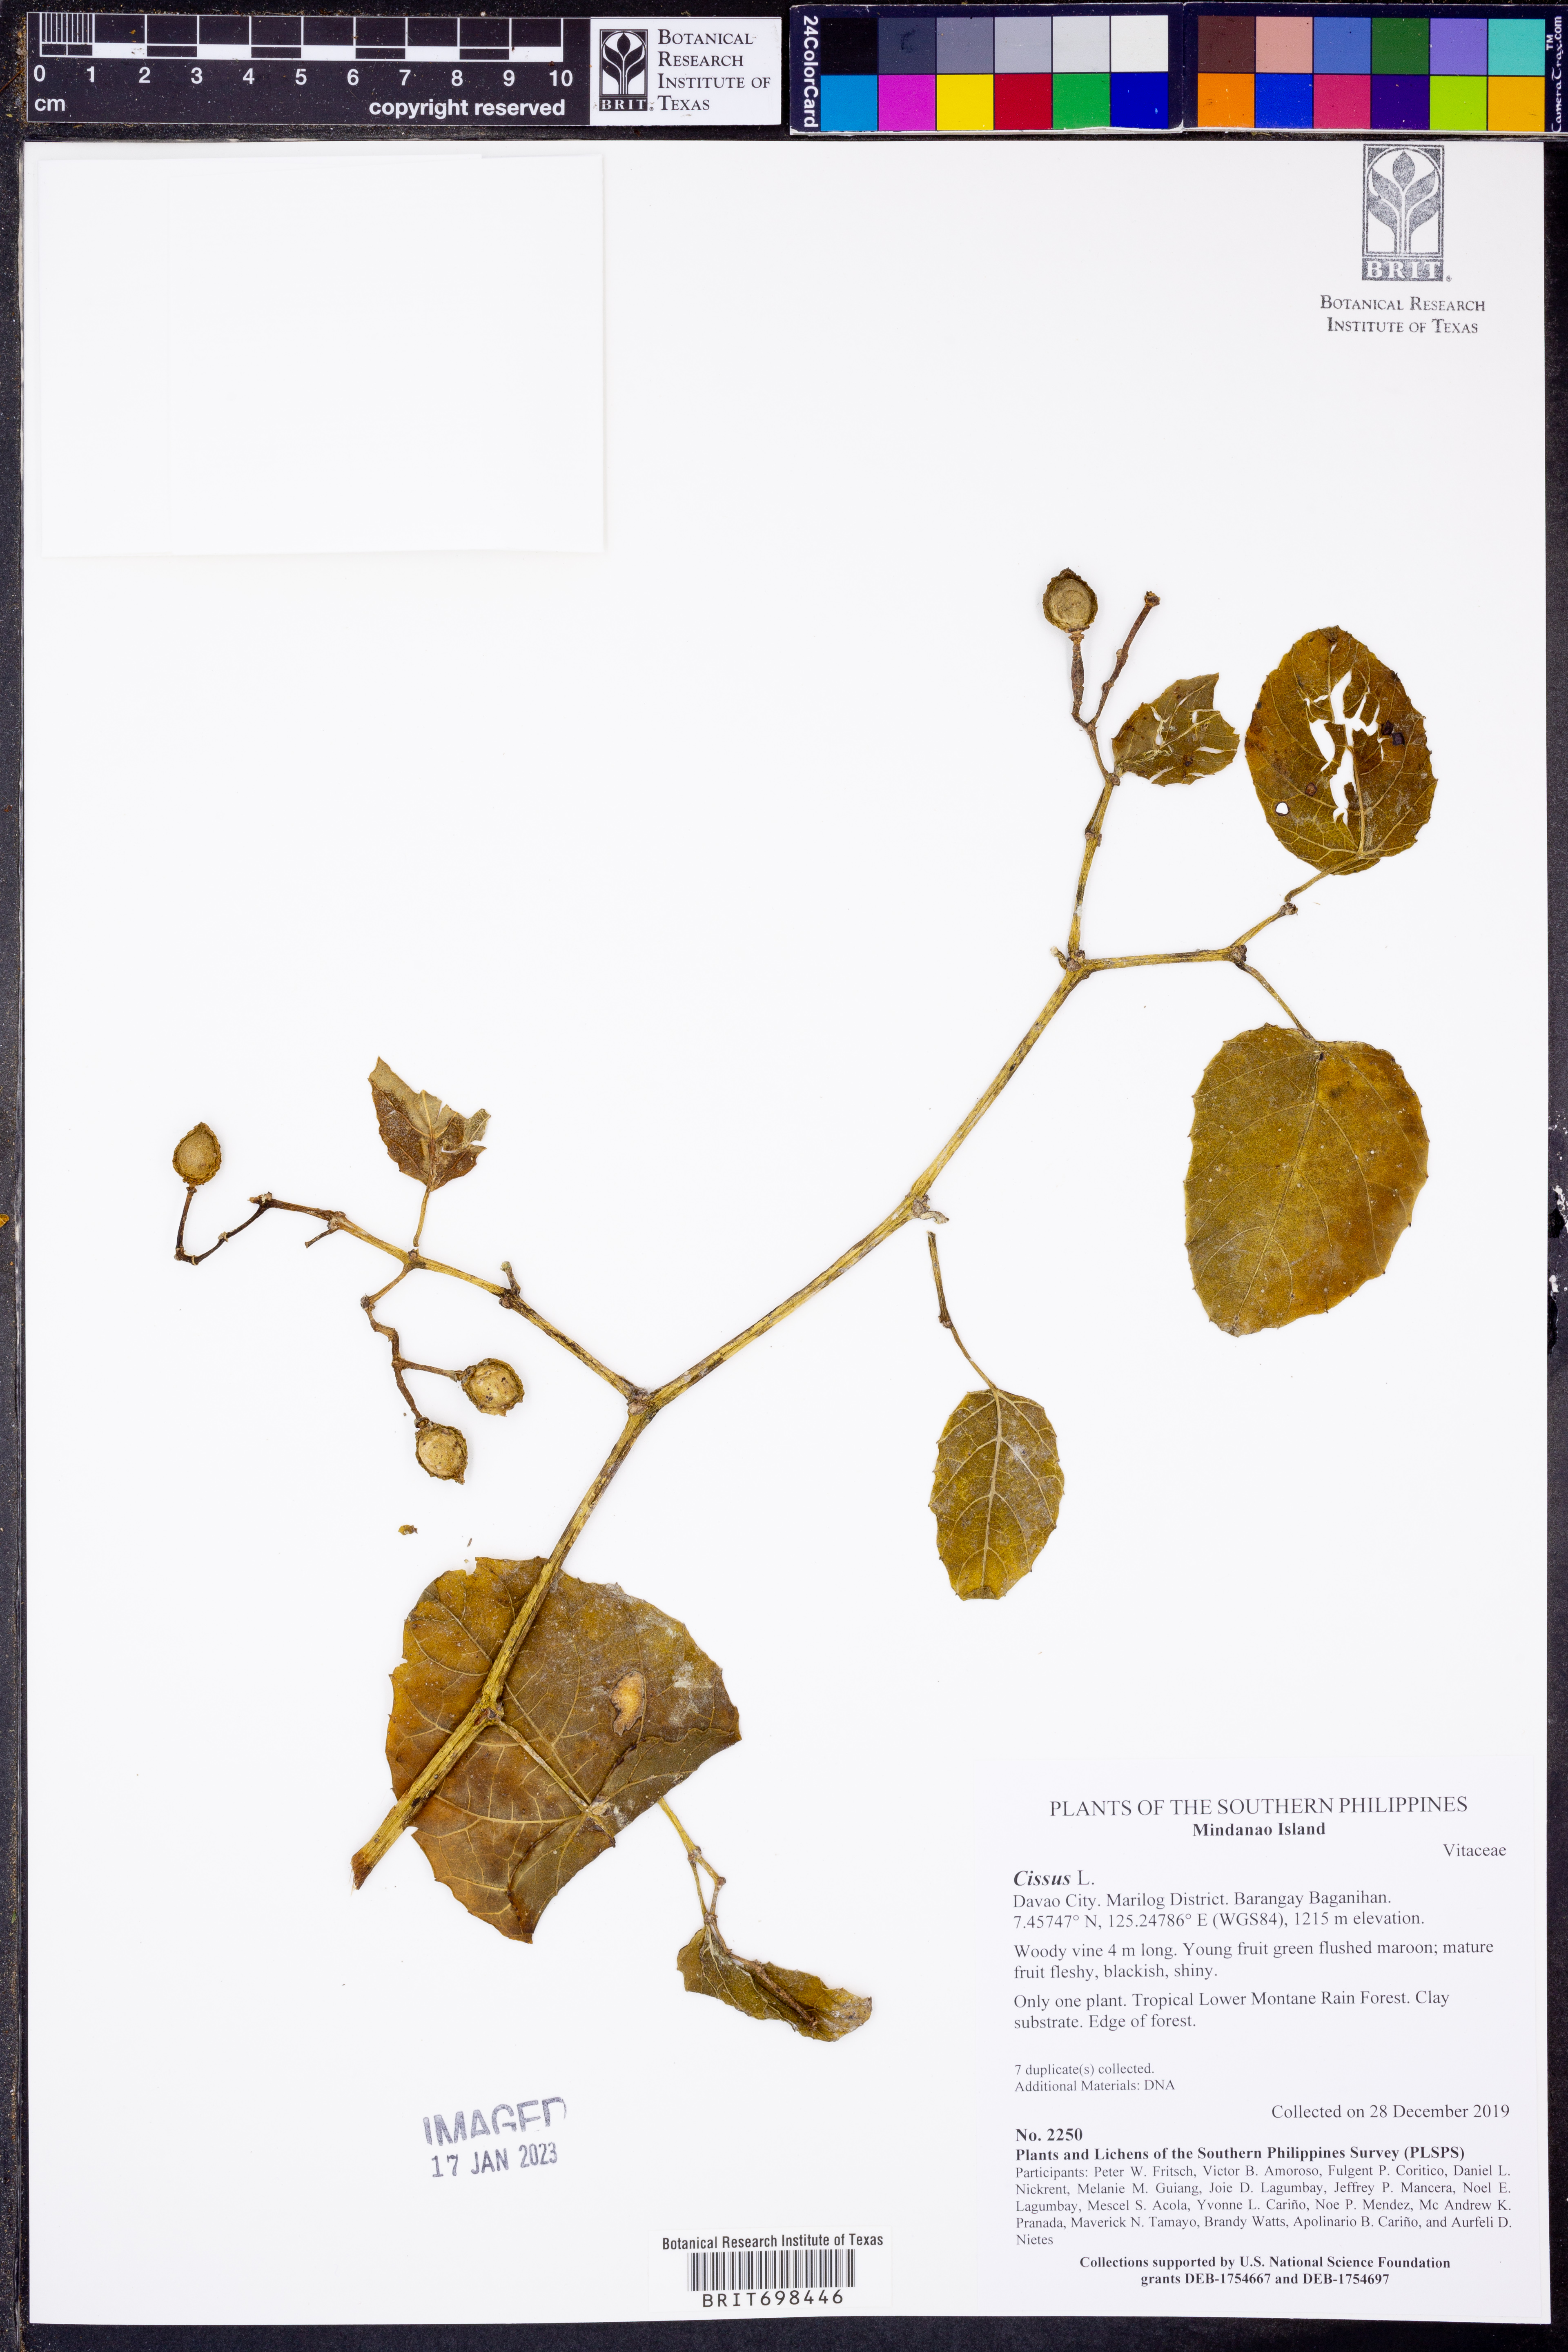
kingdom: Plantae
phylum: Tracheophyta
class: Magnoliopsida
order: Vitales
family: Vitaceae
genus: Cissus
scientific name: Cissus
